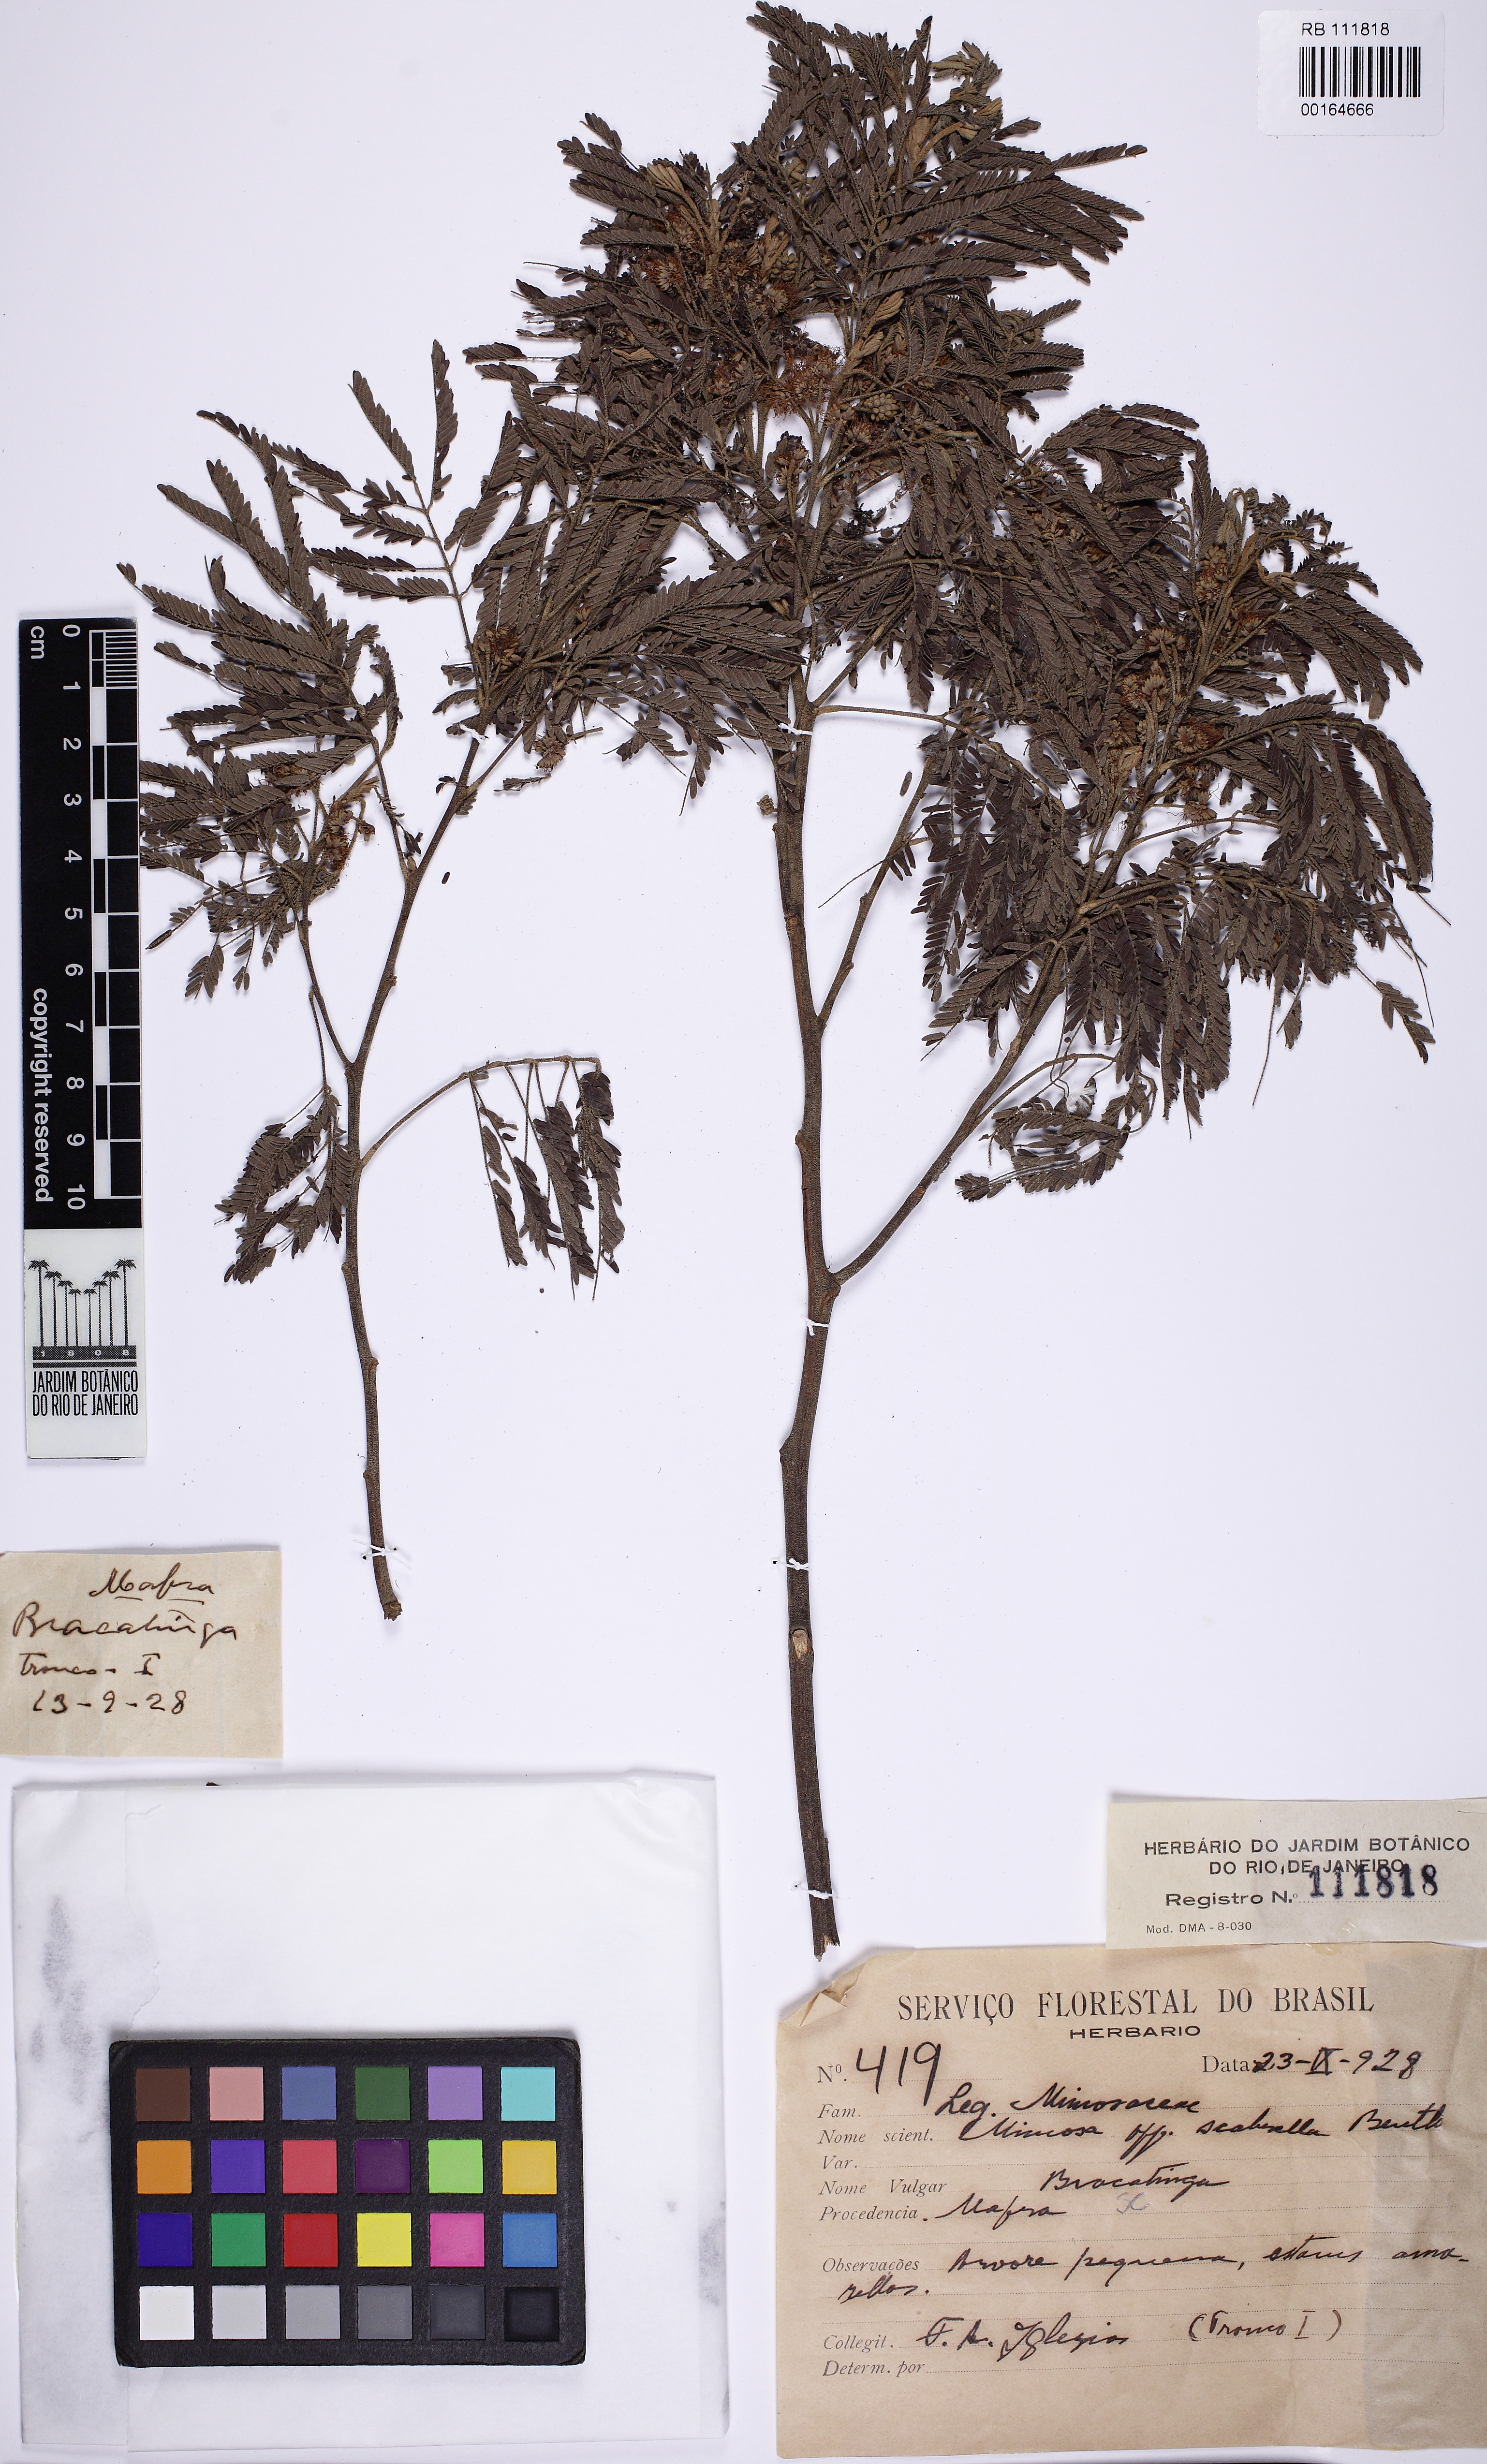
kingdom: Plantae
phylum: Tracheophyta
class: Magnoliopsida
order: Fabales
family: Fabaceae
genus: Mimosa
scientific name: Mimosa scabrella
